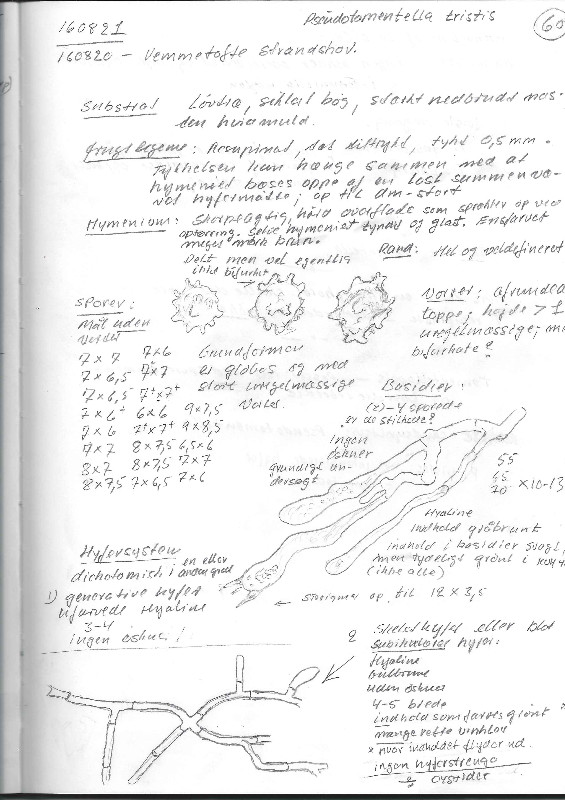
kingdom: Fungi
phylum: Basidiomycota
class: Agaricomycetes
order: Thelephorales
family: Thelephoraceae
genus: Polyozellus
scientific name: Polyozellus tristis
